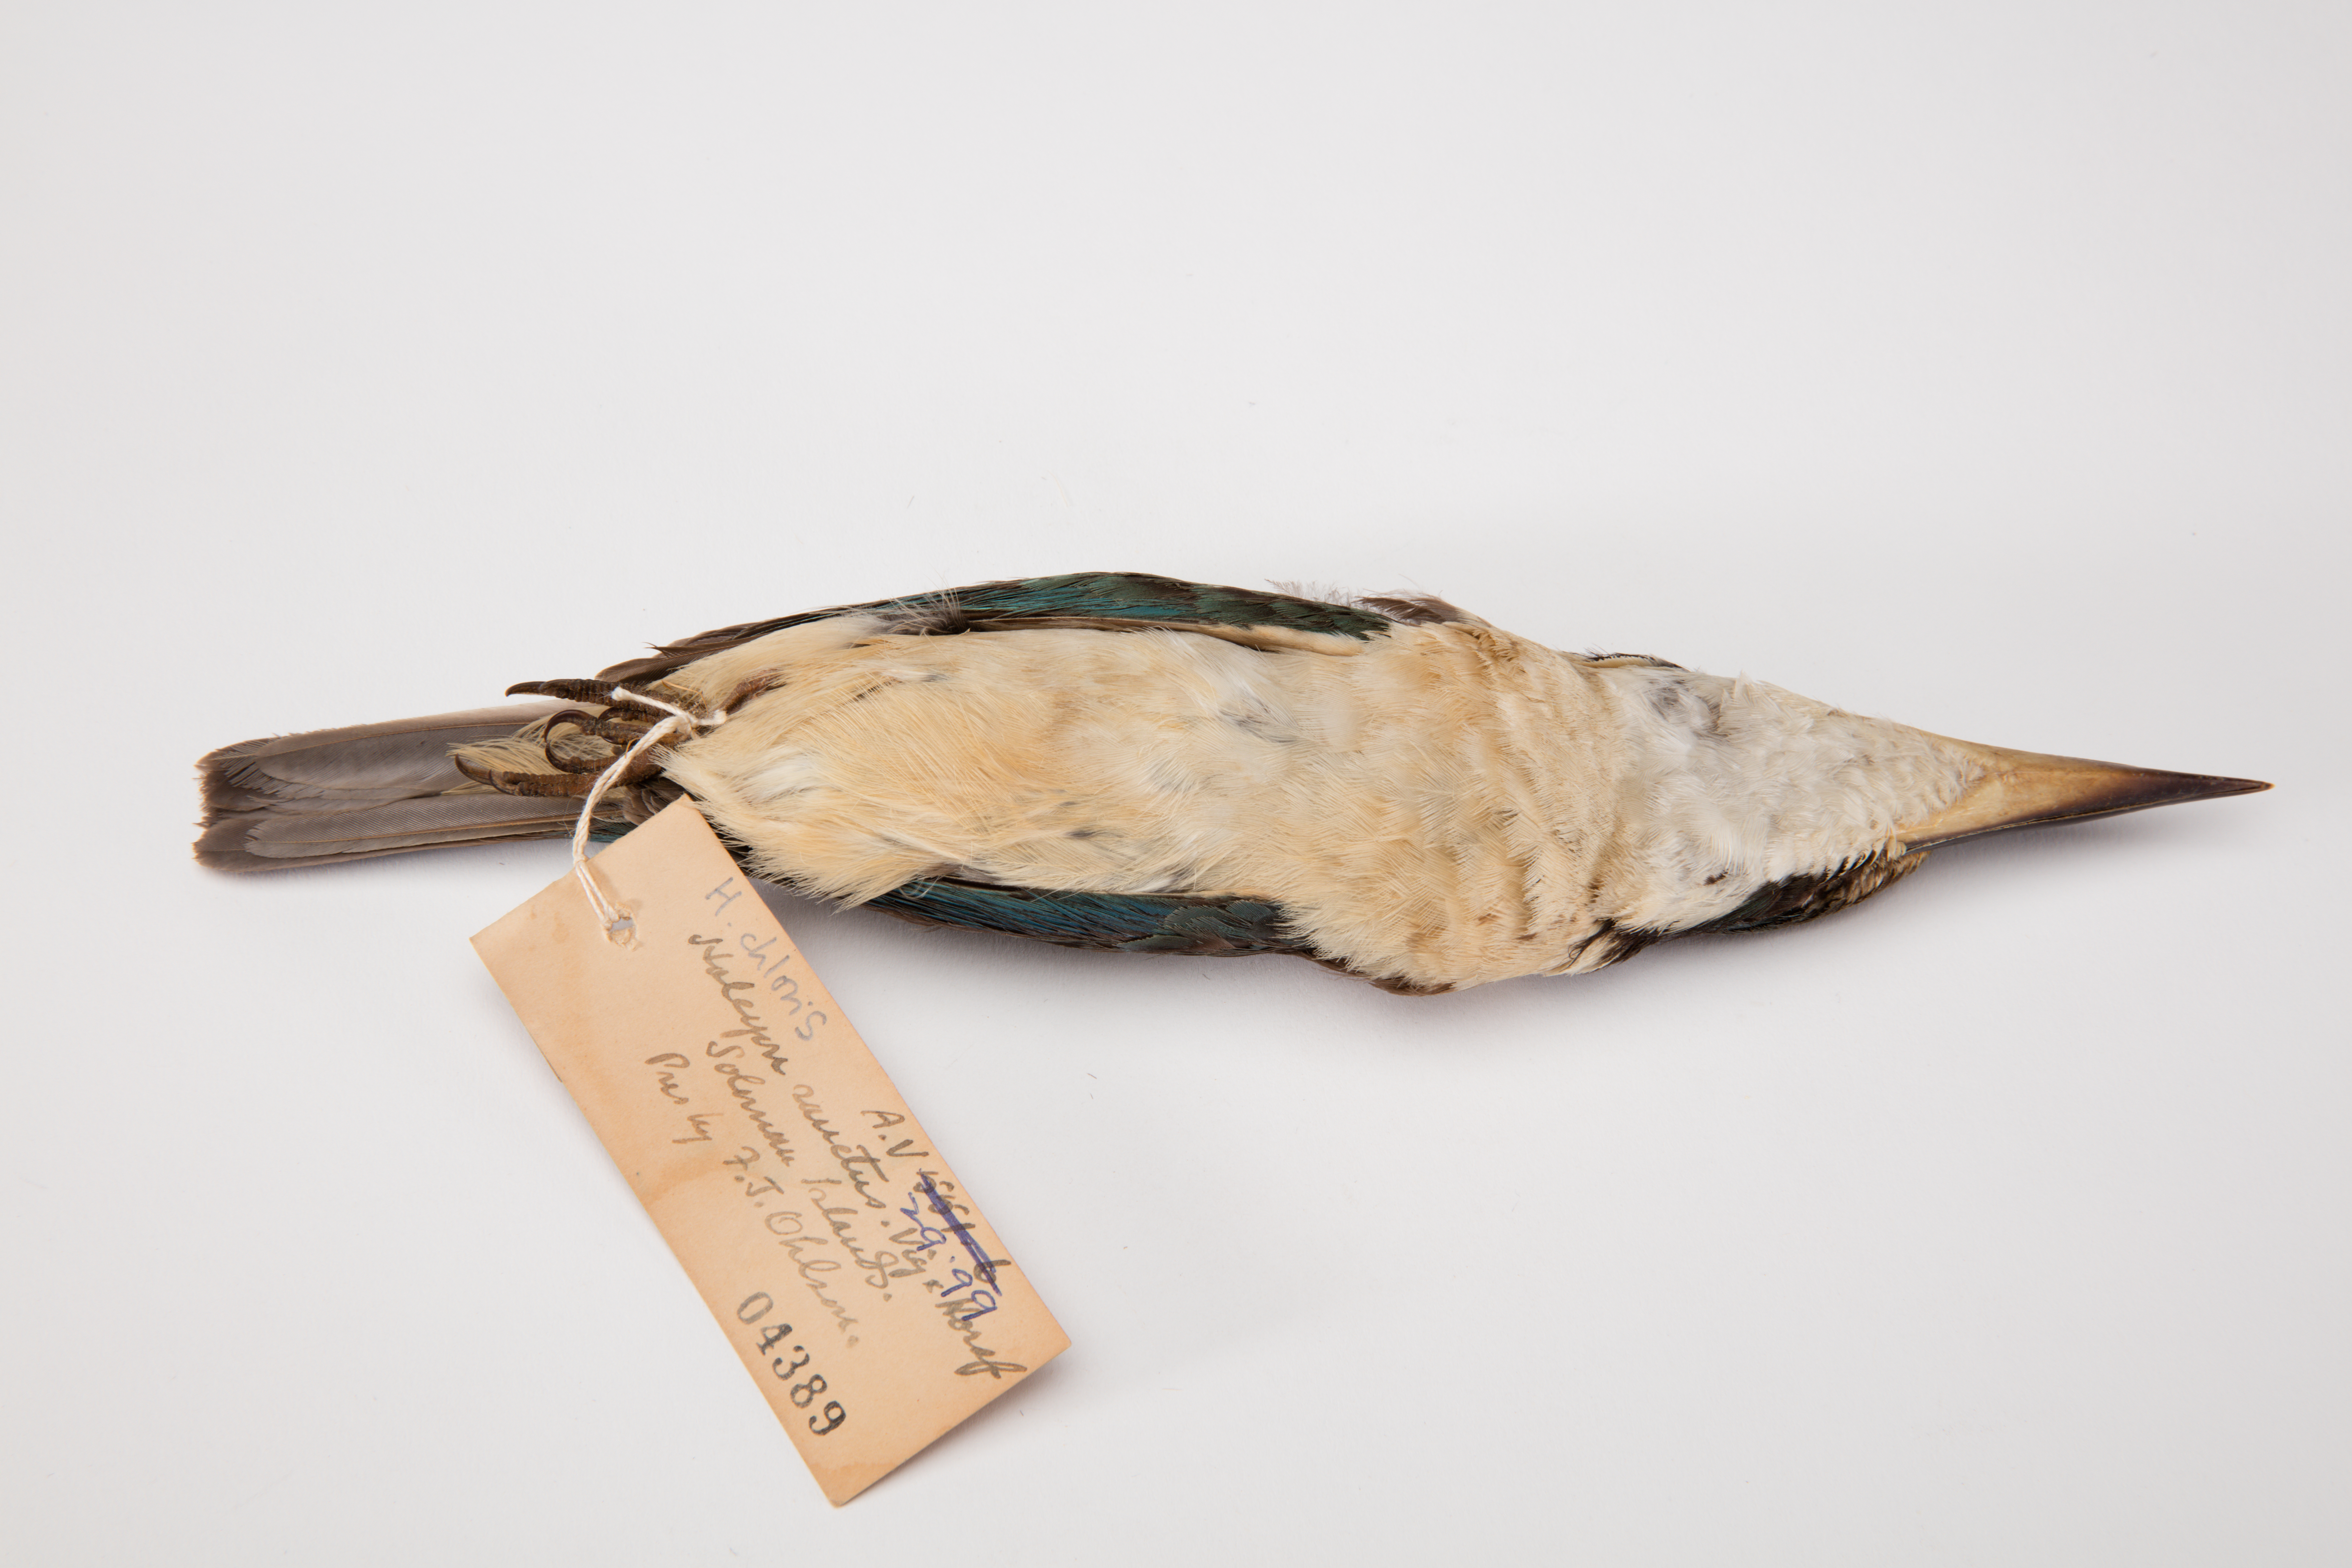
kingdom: Animalia
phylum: Chordata
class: Aves
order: Coraciiformes
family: Alcedinidae
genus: Todiramphus
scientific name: Todiramphus chloris
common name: Collared kingfisher
